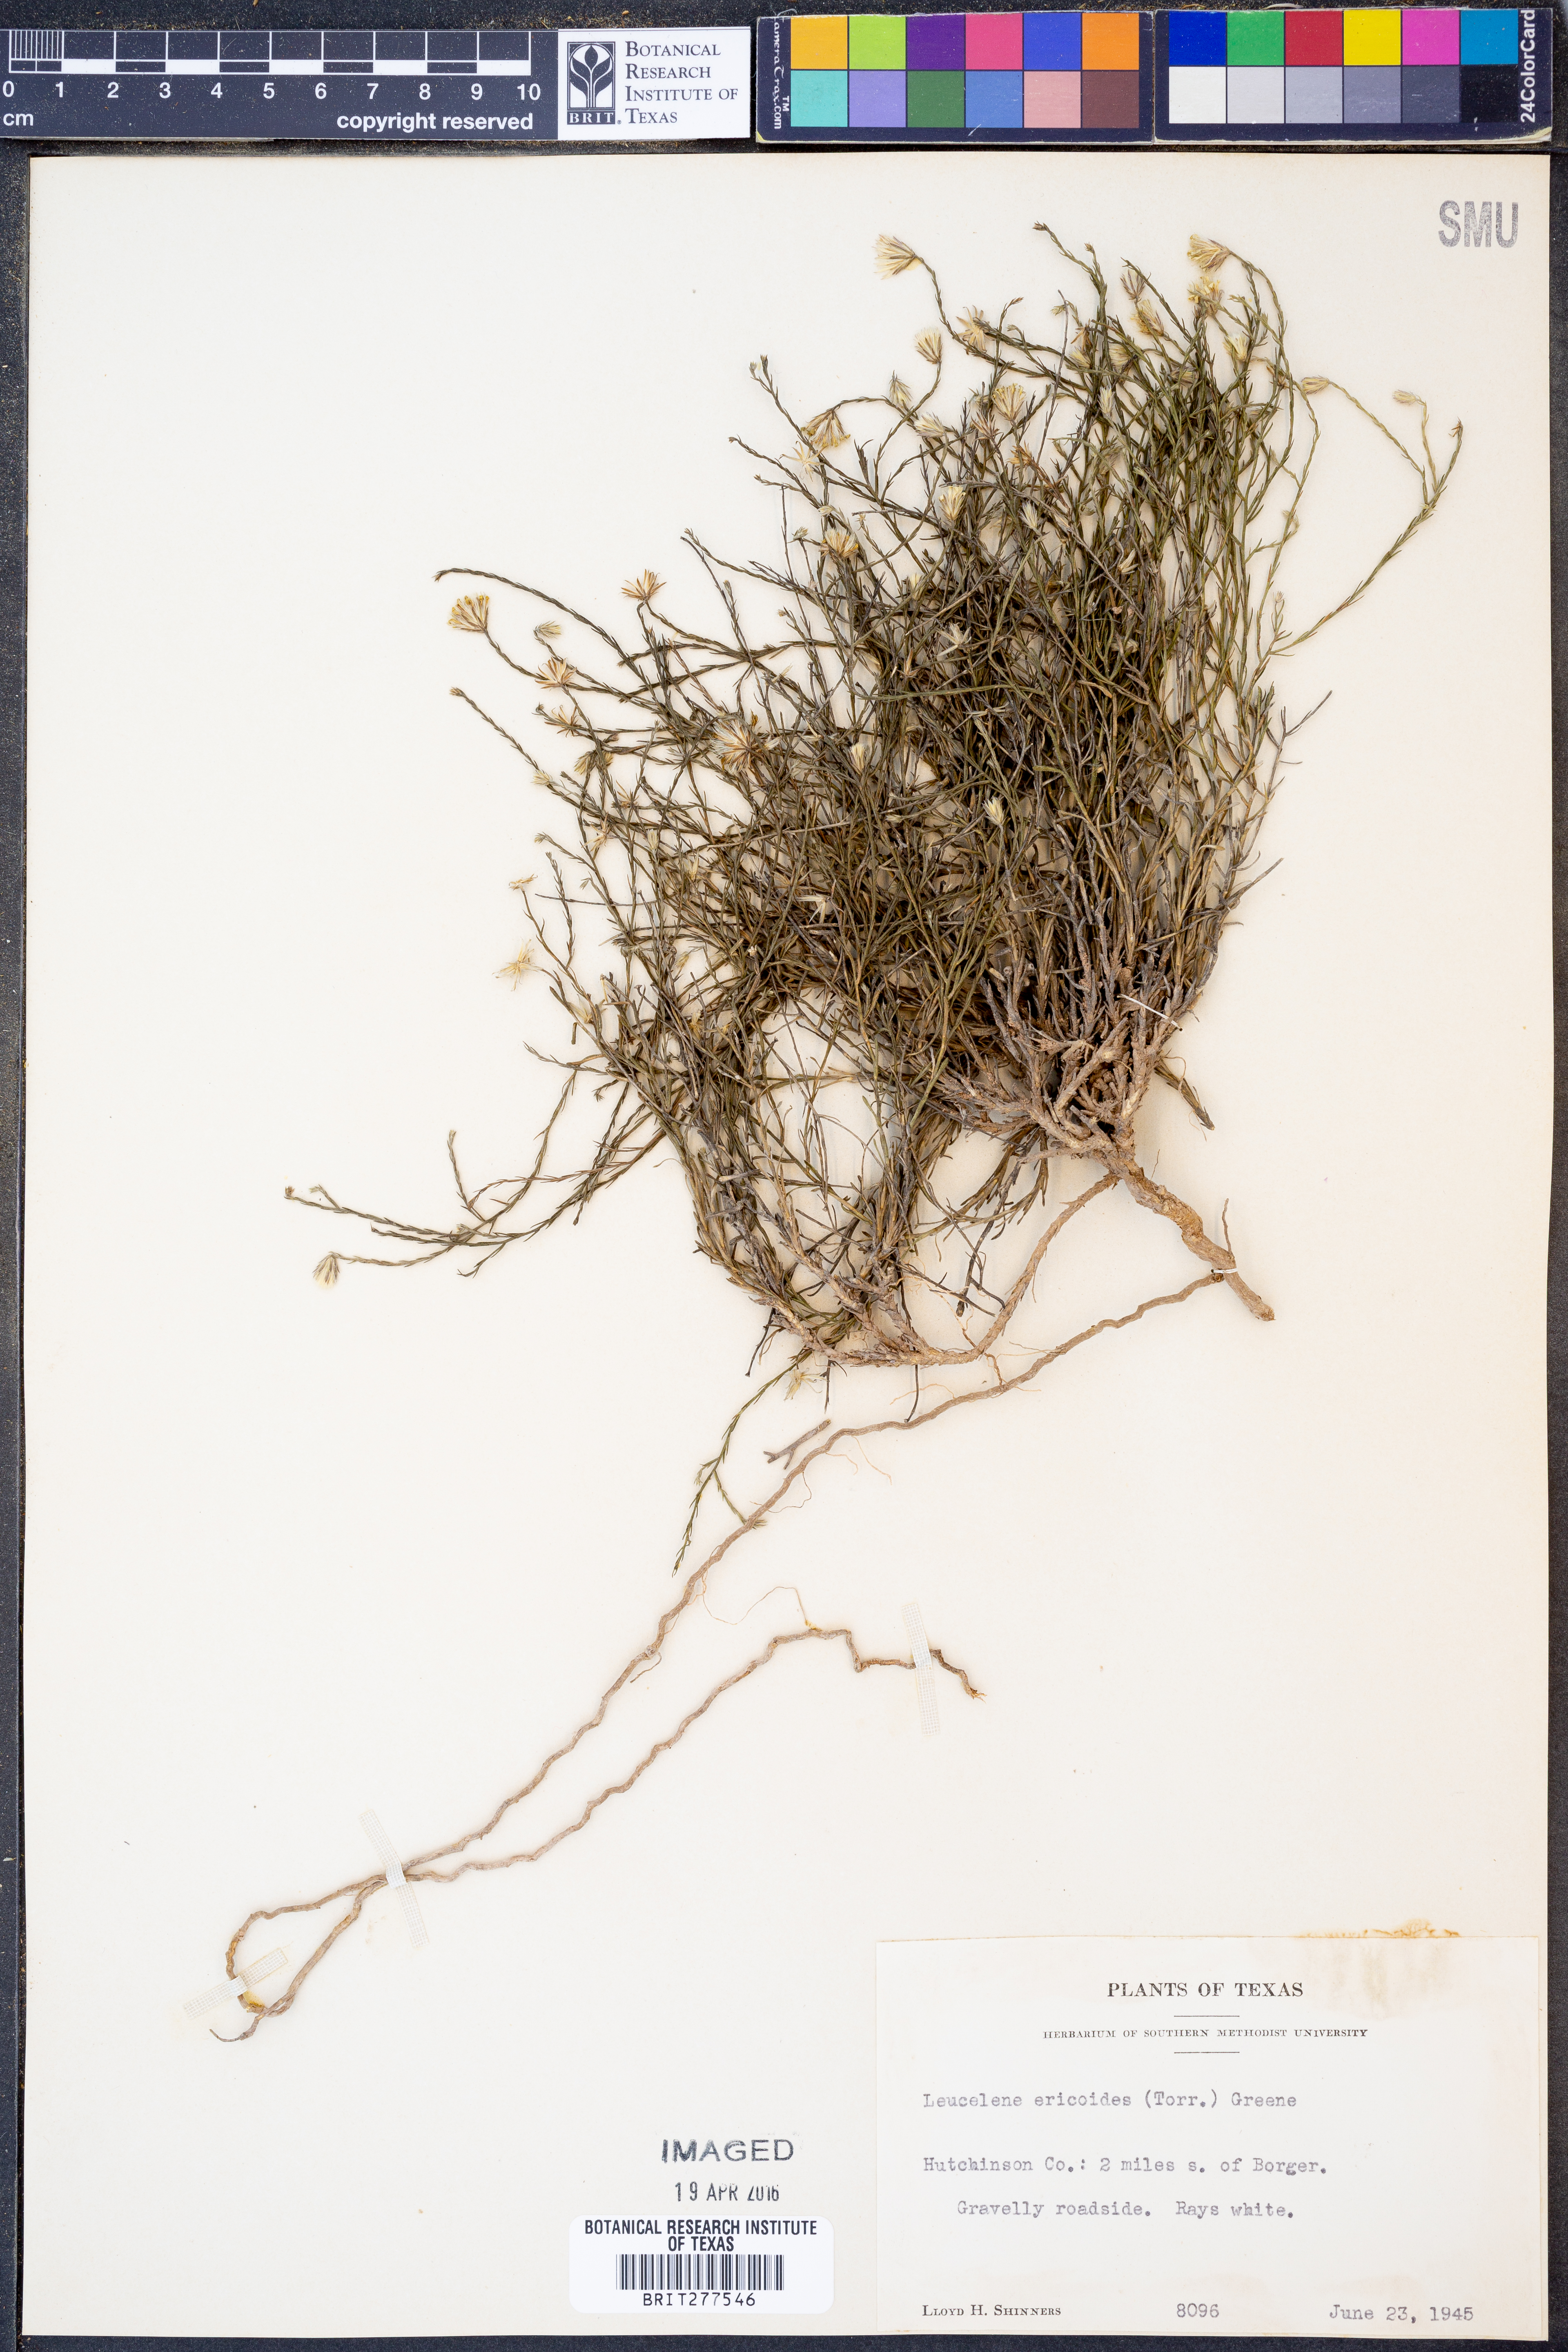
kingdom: Plantae
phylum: Tracheophyta
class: Magnoliopsida
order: Asterales
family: Asteraceae
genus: Chaetopappa
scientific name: Chaetopappa ericoides
